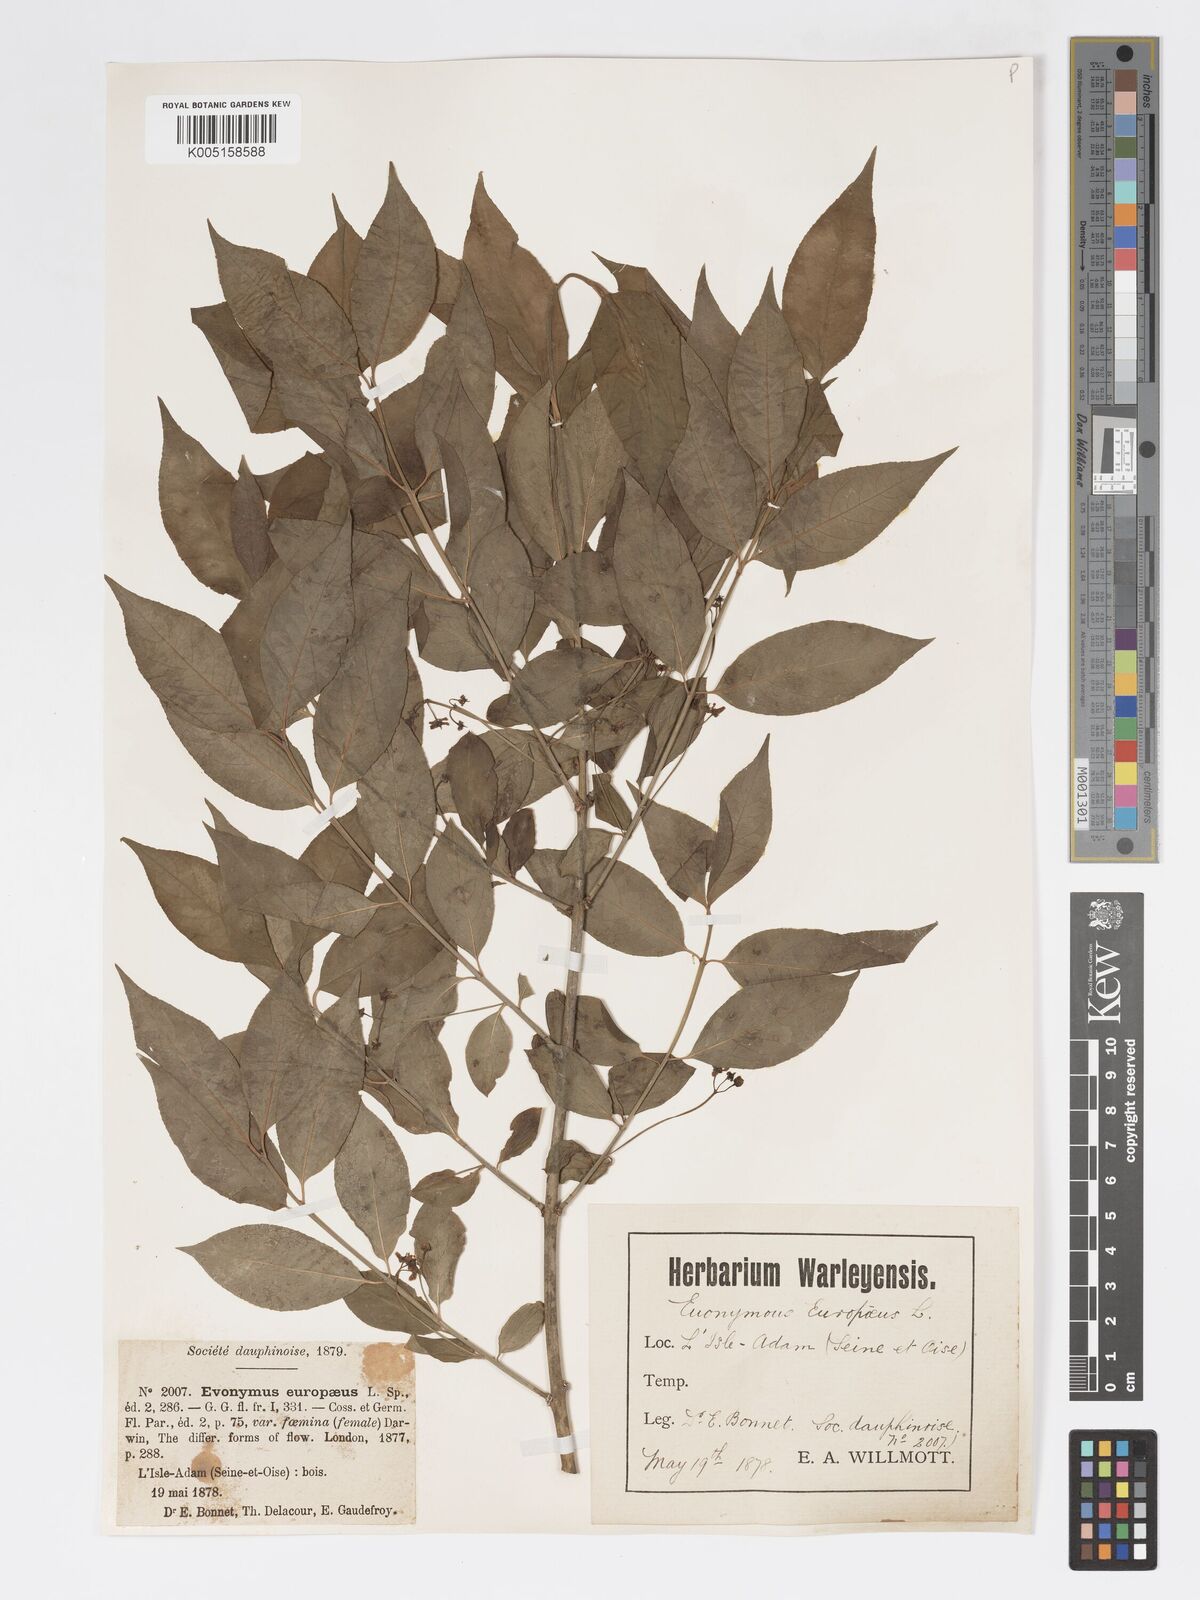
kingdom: Plantae
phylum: Tracheophyta
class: Magnoliopsida
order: Celastrales
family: Celastraceae
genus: Euonymus
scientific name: Euonymus europaeus
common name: Spindle
